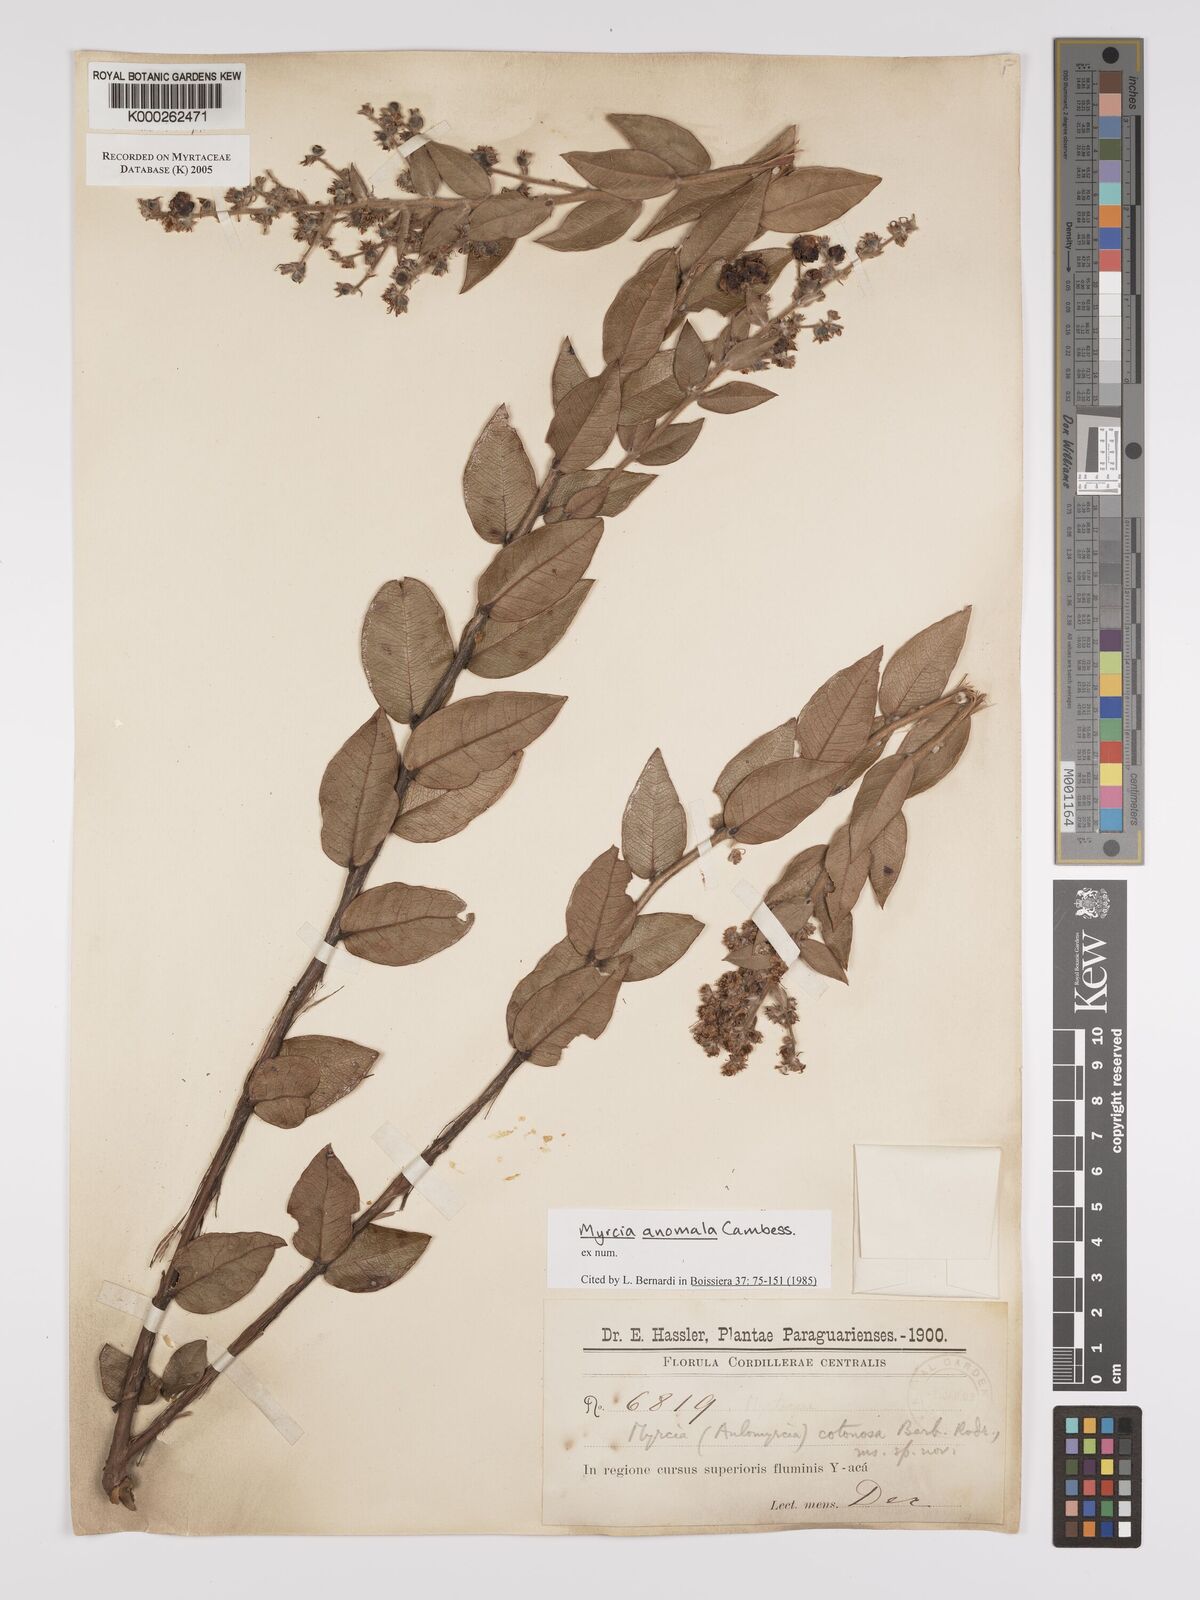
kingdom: Plantae
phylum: Tracheophyta
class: Magnoliopsida
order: Myrtales
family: Myrtaceae
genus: Myrcia
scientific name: Myrcia anomala
